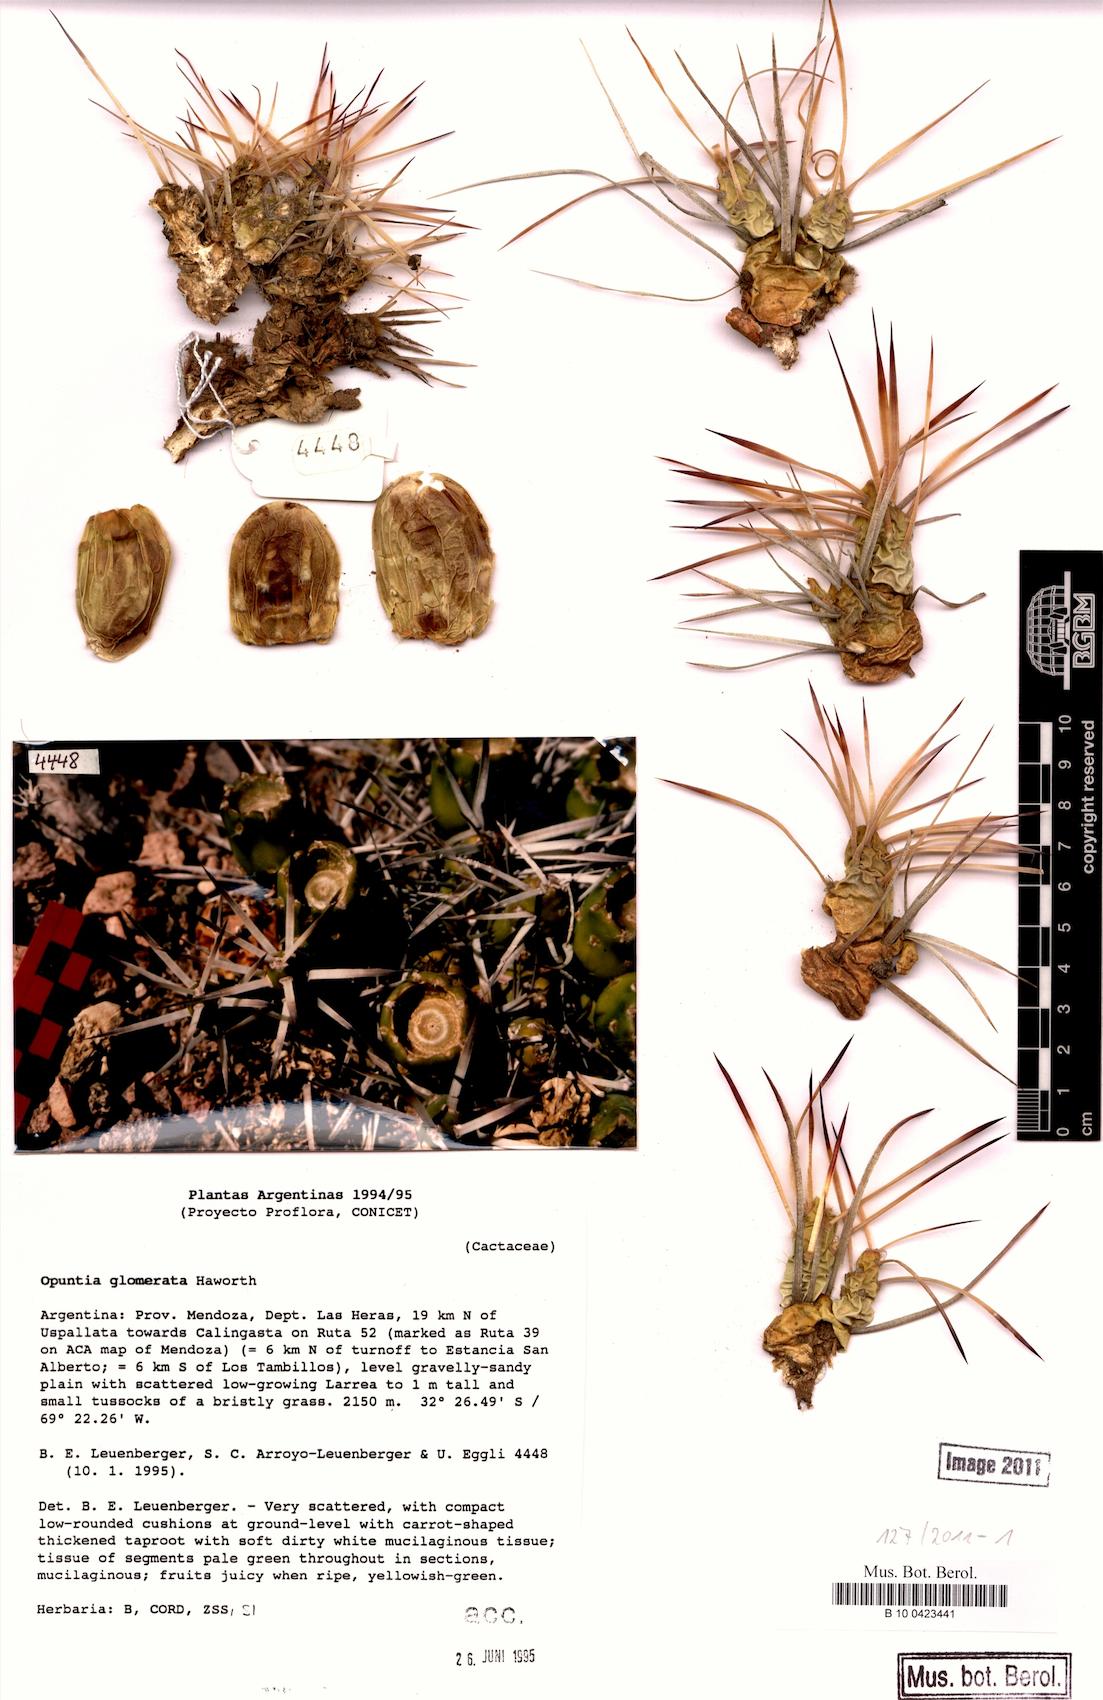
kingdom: Plantae
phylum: Tracheophyta
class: Magnoliopsida
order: Caryophyllales
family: Cactaceae
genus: Maihueniopsis
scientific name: Maihueniopsis glomerata
